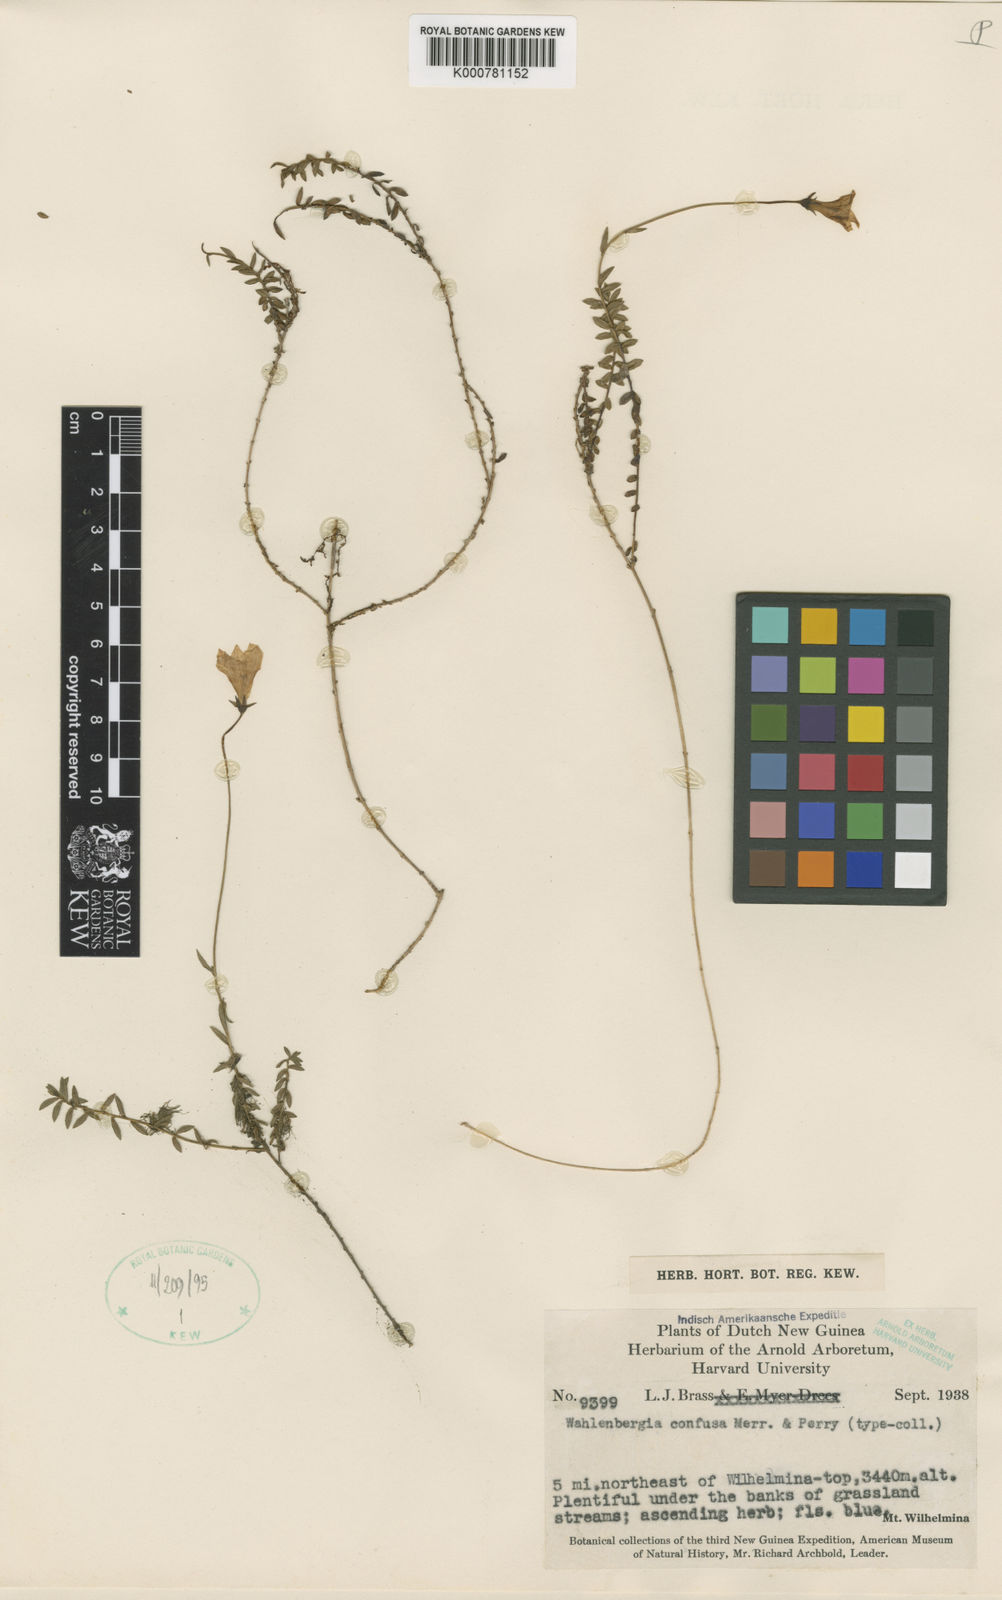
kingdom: Plantae
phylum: Tracheophyta
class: Magnoliopsida
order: Asterales
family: Campanulaceae
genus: Wahlenbergia
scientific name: Wahlenbergia confusa
